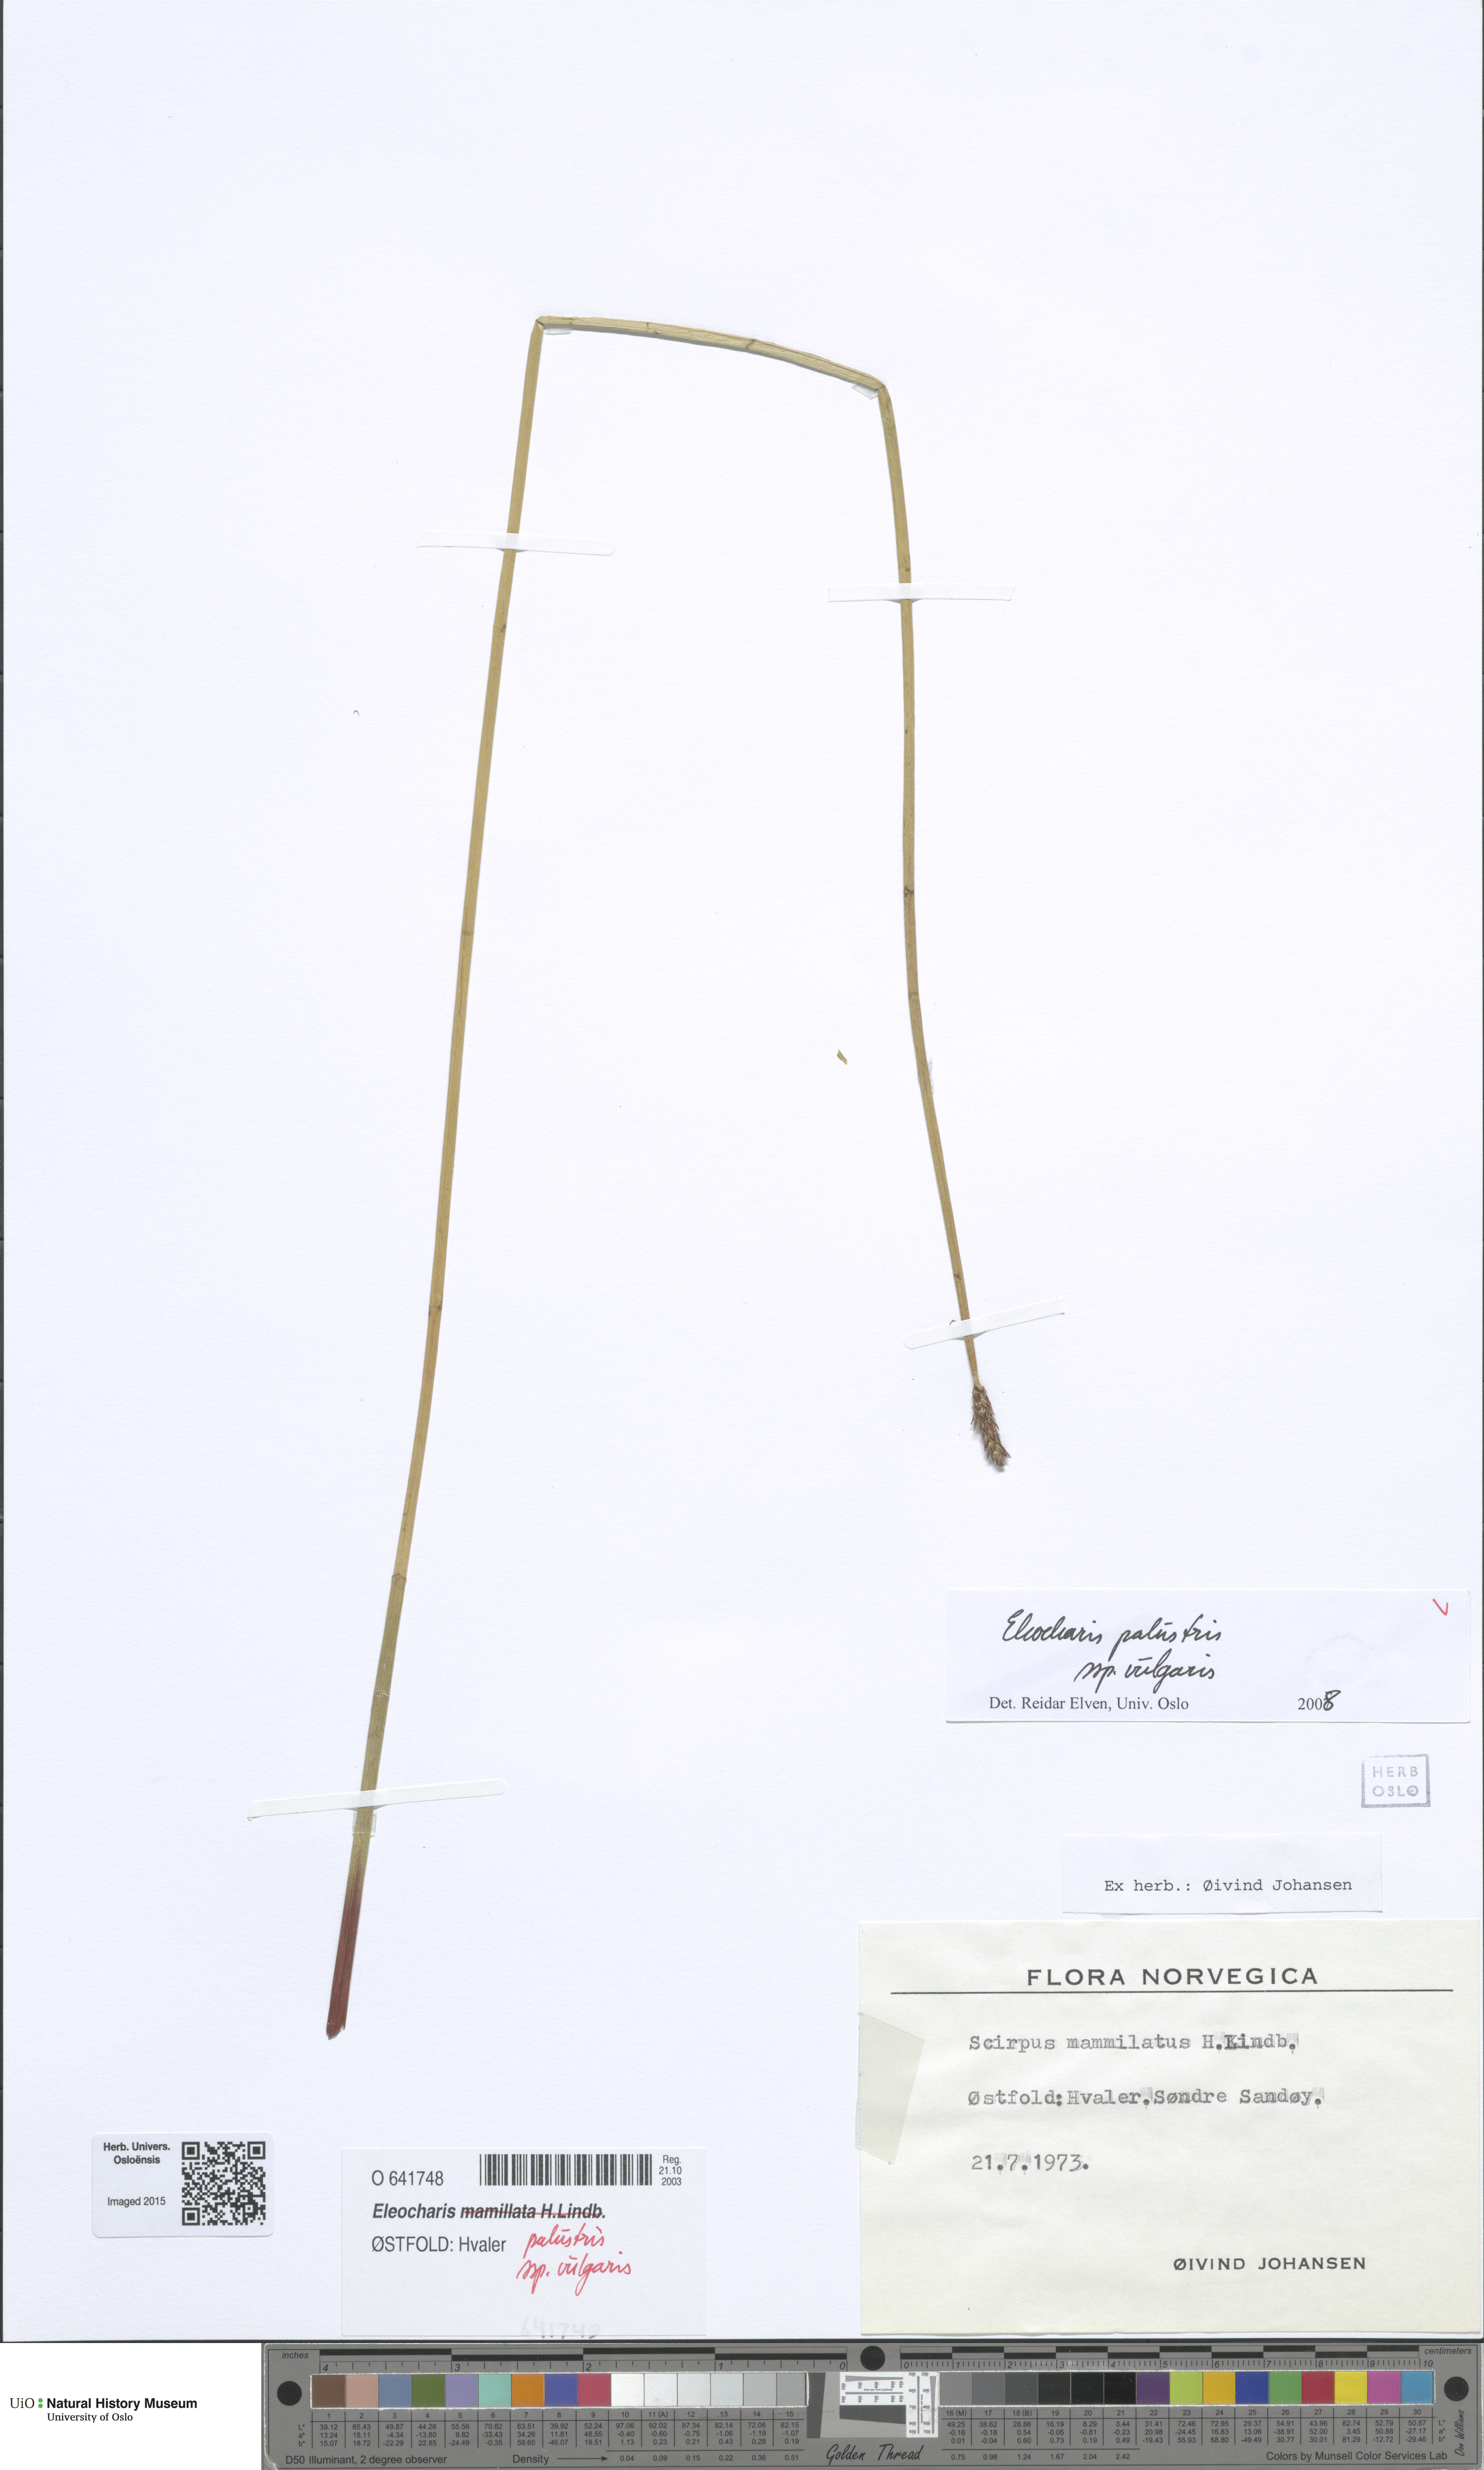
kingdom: Plantae
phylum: Tracheophyta
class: Liliopsida
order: Poales
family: Cyperaceae
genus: Eleocharis
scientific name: Eleocharis palustris
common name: Common spike-rush
